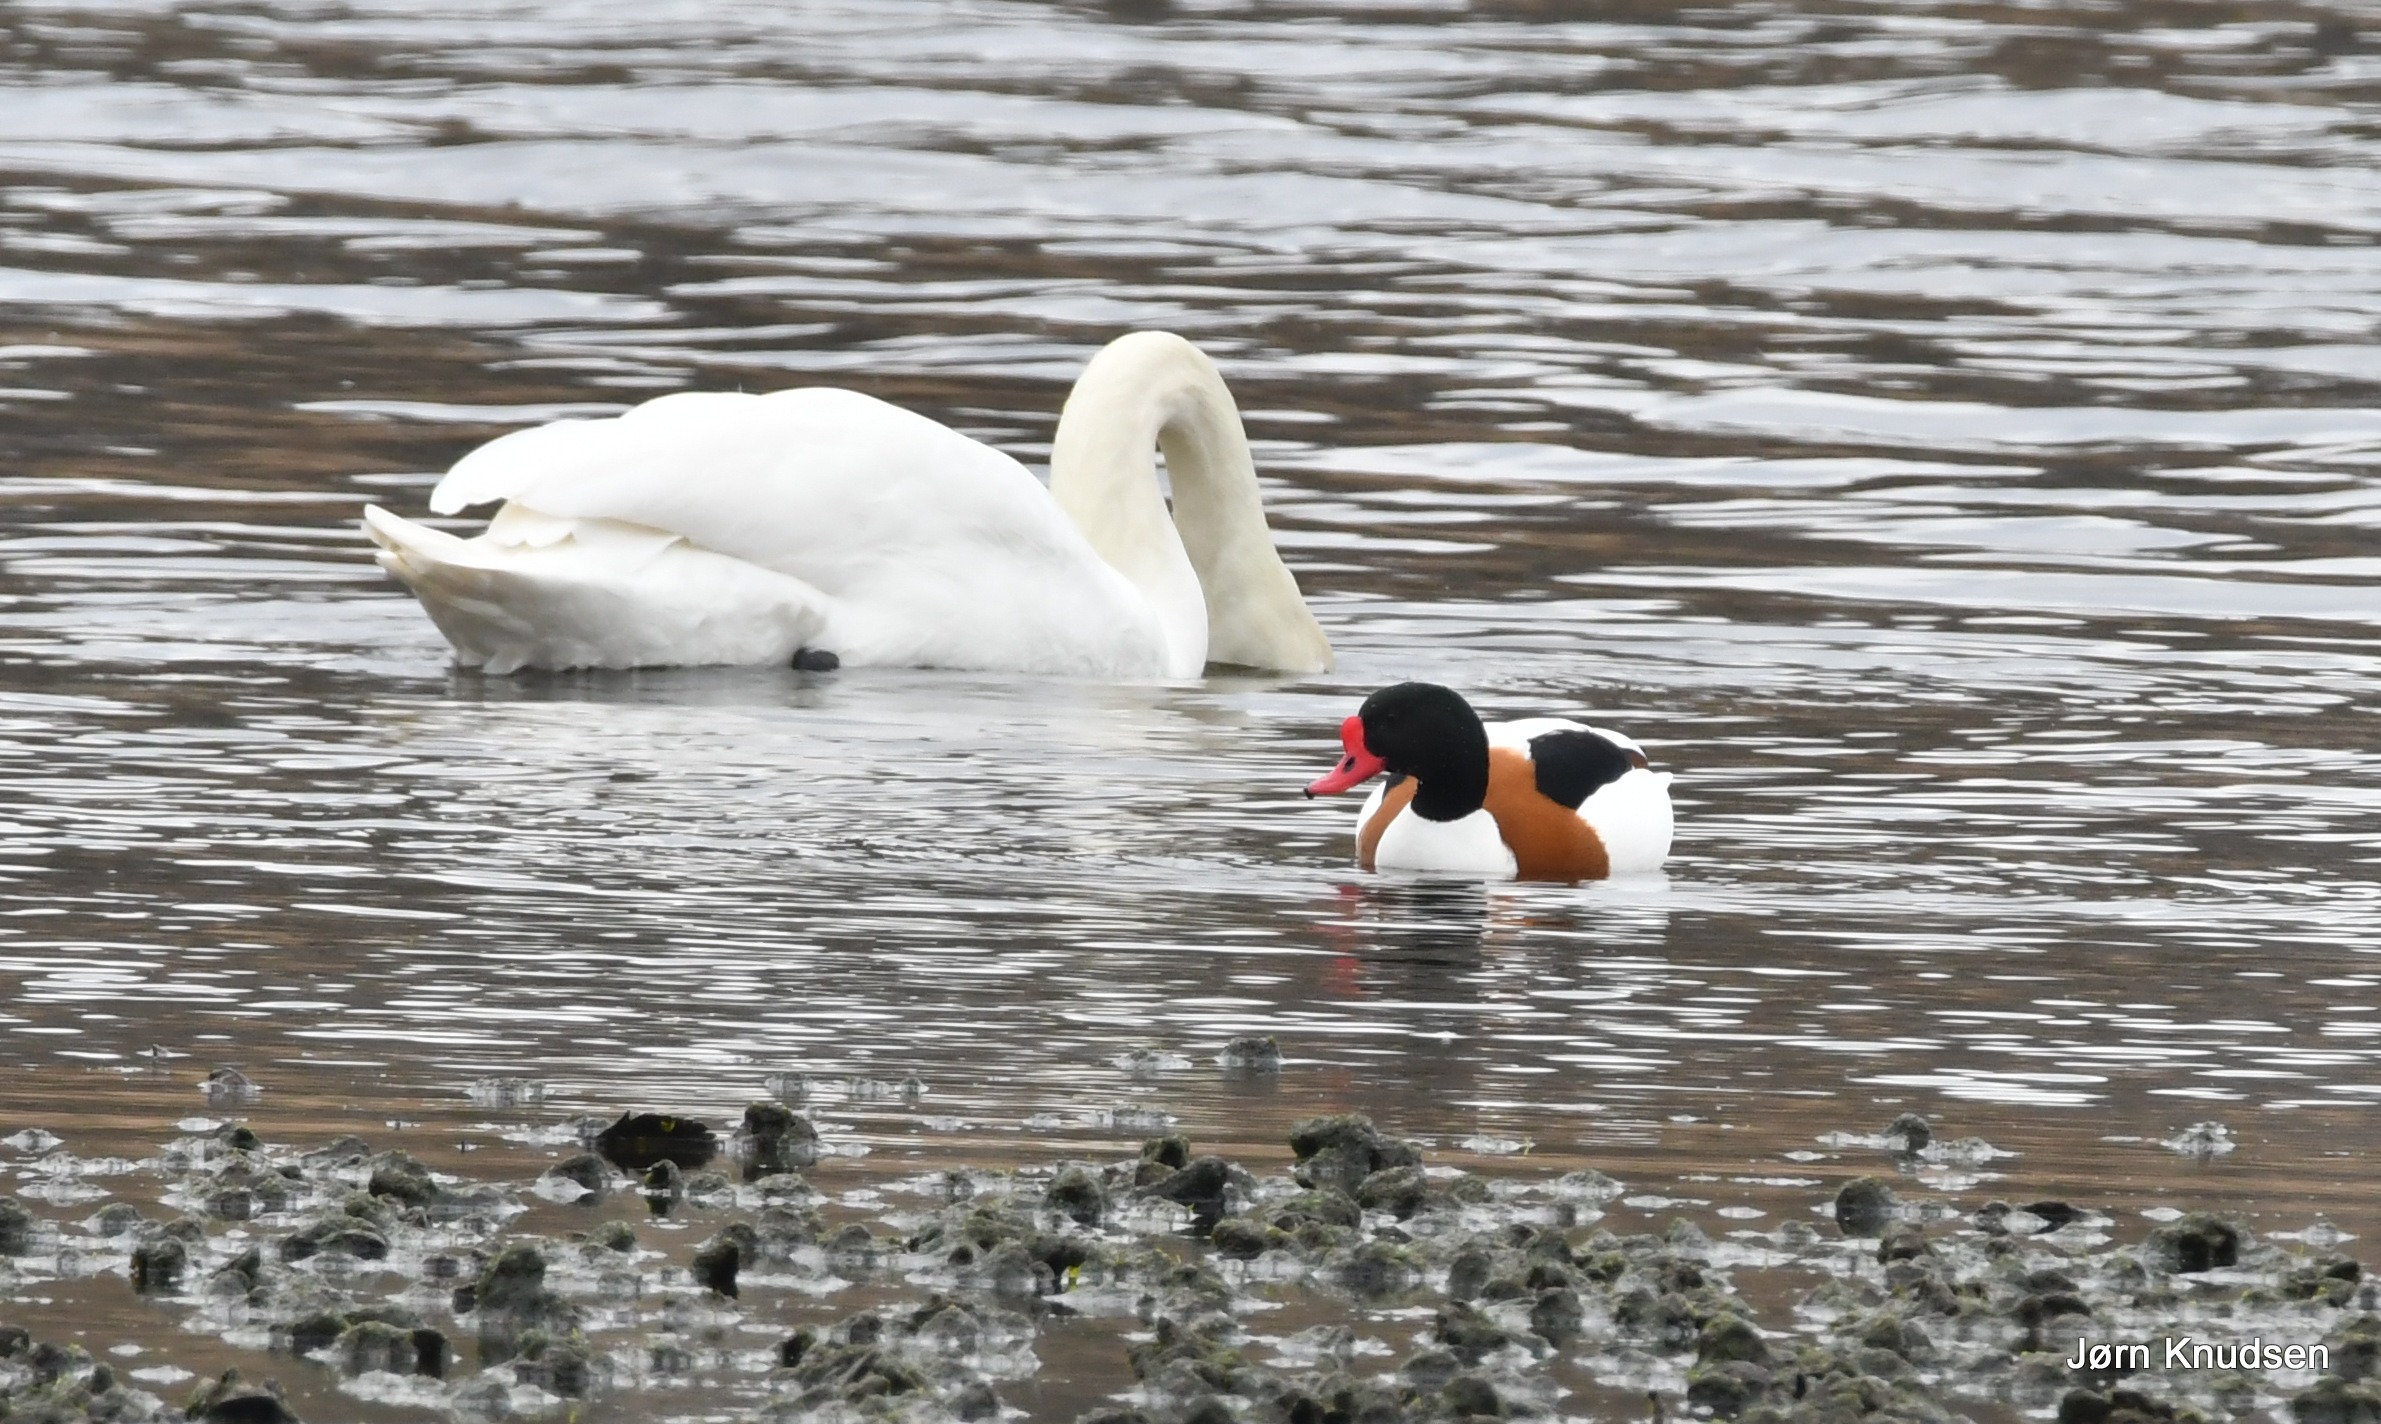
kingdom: Animalia
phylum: Chordata
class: Aves
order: Anseriformes
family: Anatidae
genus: Cygnus
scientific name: Cygnus olor
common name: Knopsvane
